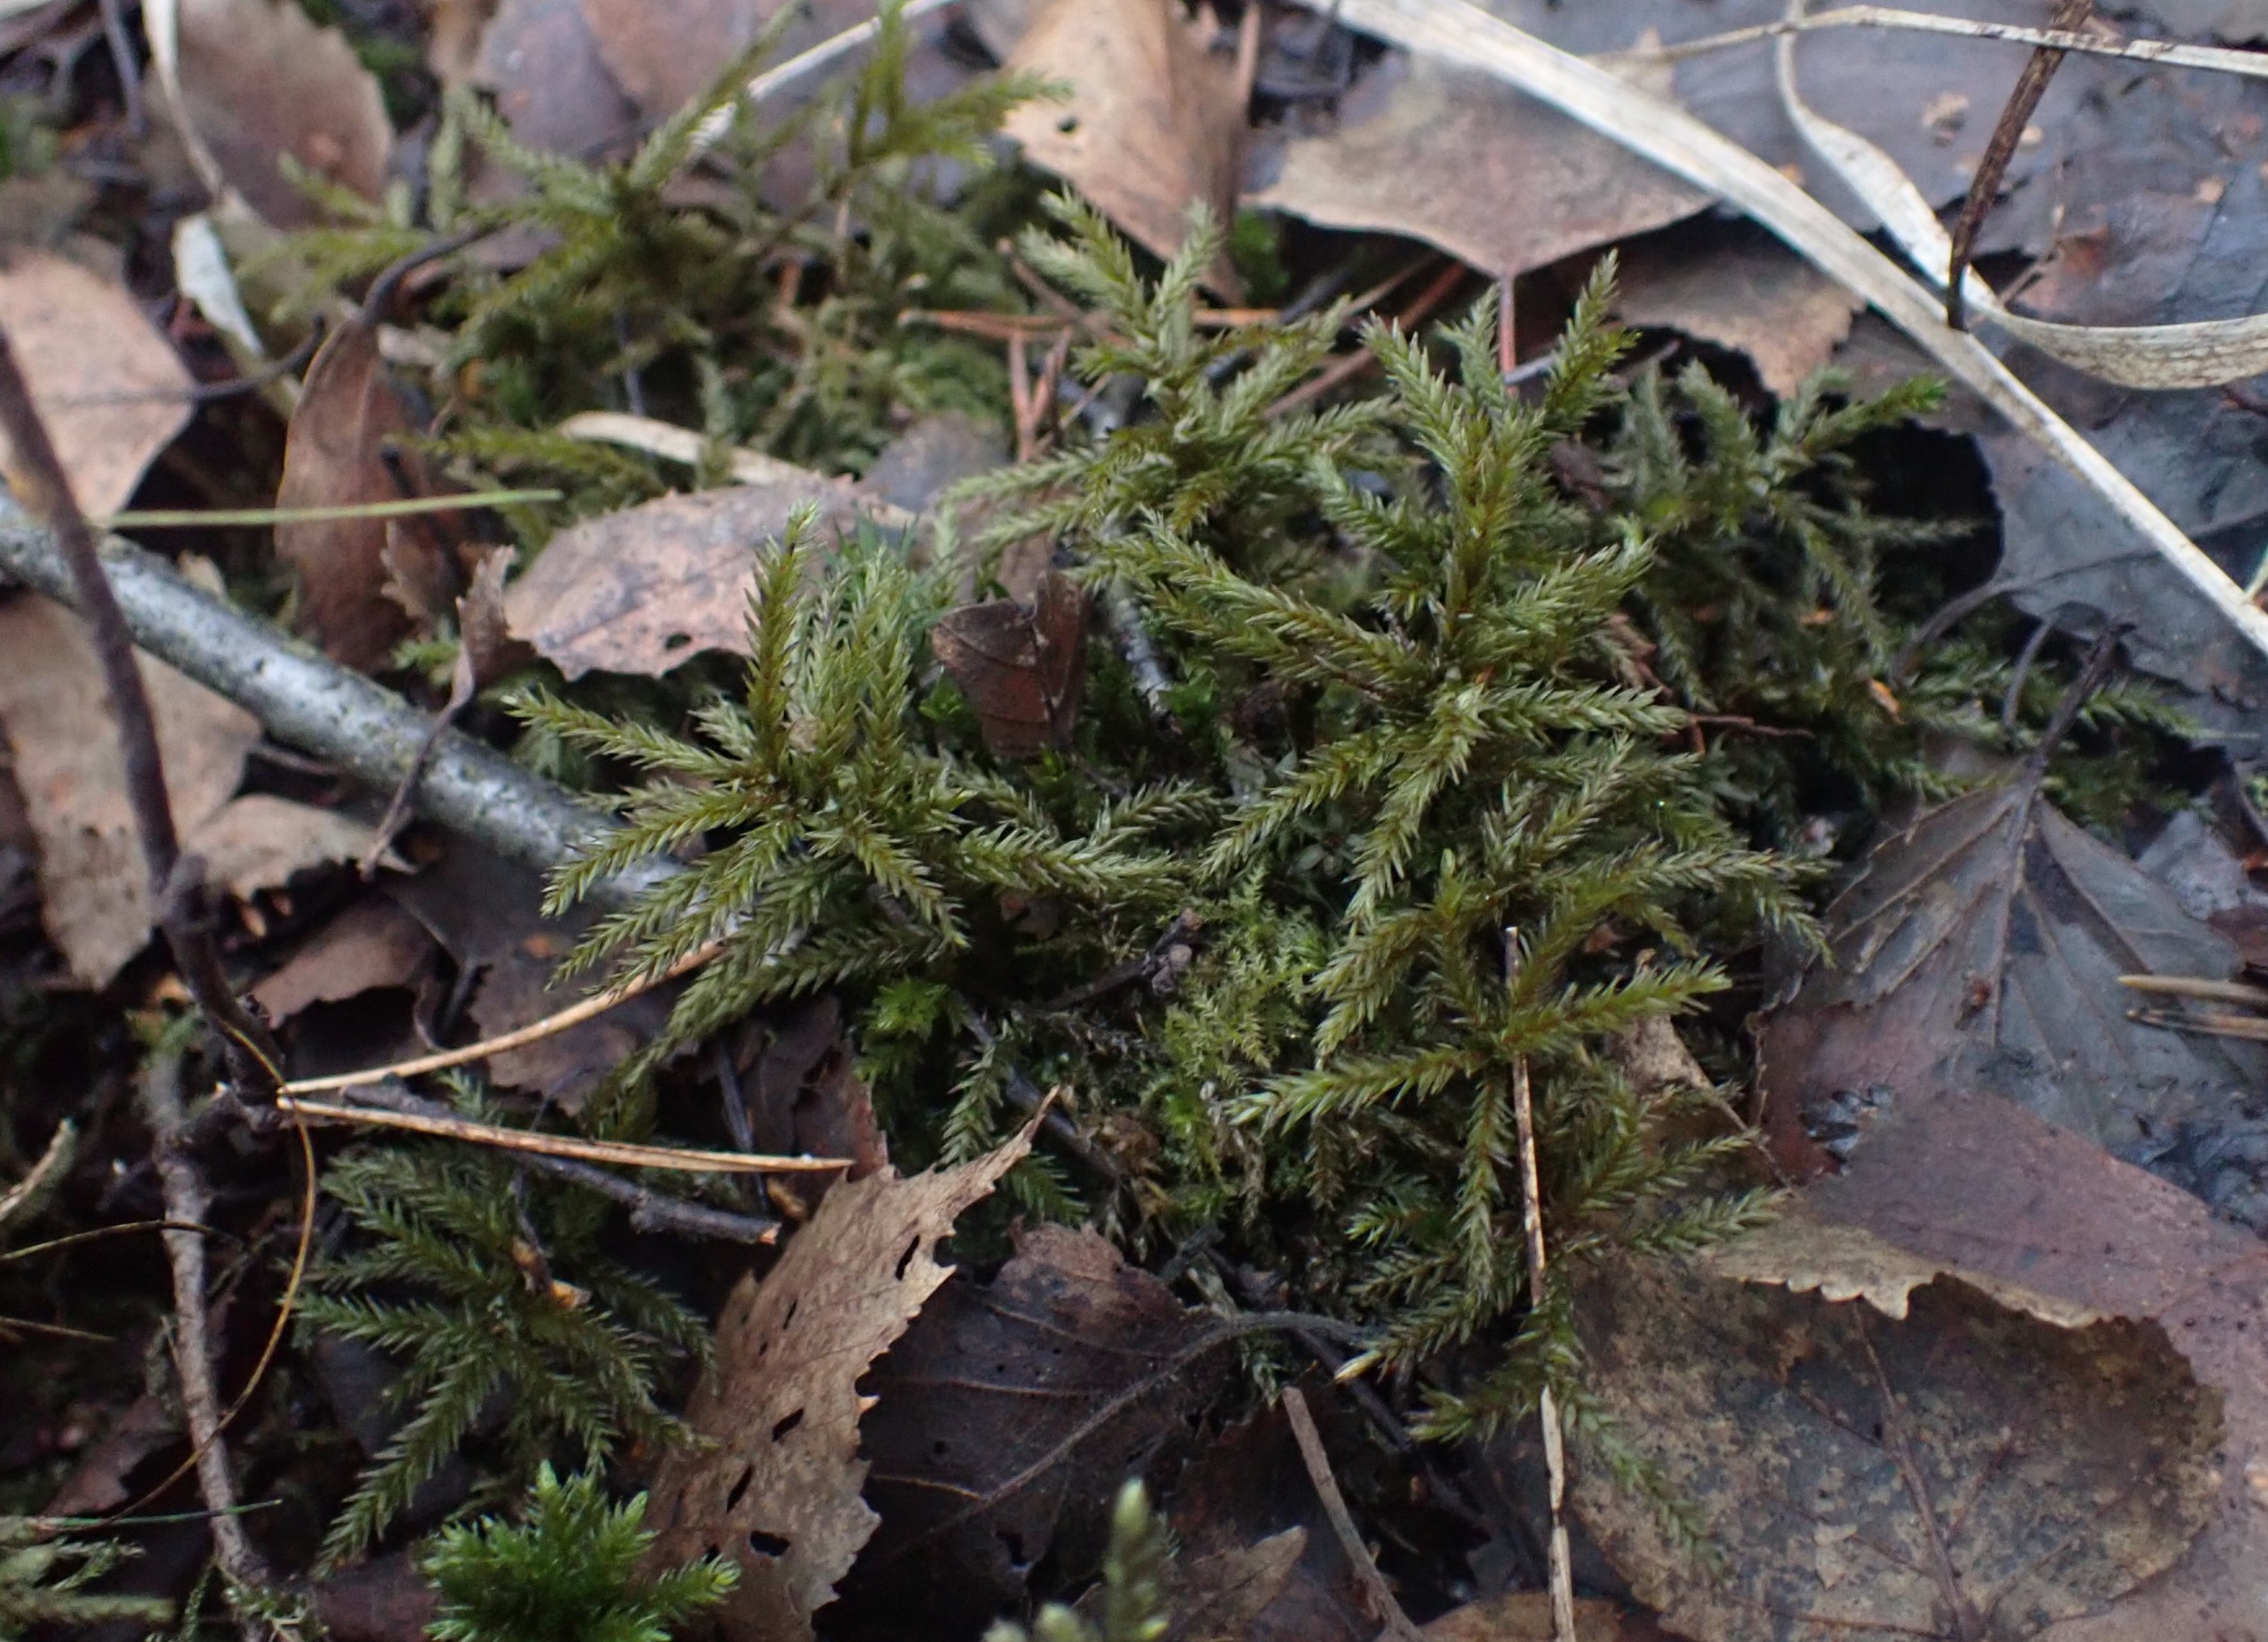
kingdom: Plantae
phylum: Bryophyta
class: Bryopsida
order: Hypnales
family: Climaciaceae
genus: Climacium
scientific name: Climacium dendroides
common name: Stor engkost
